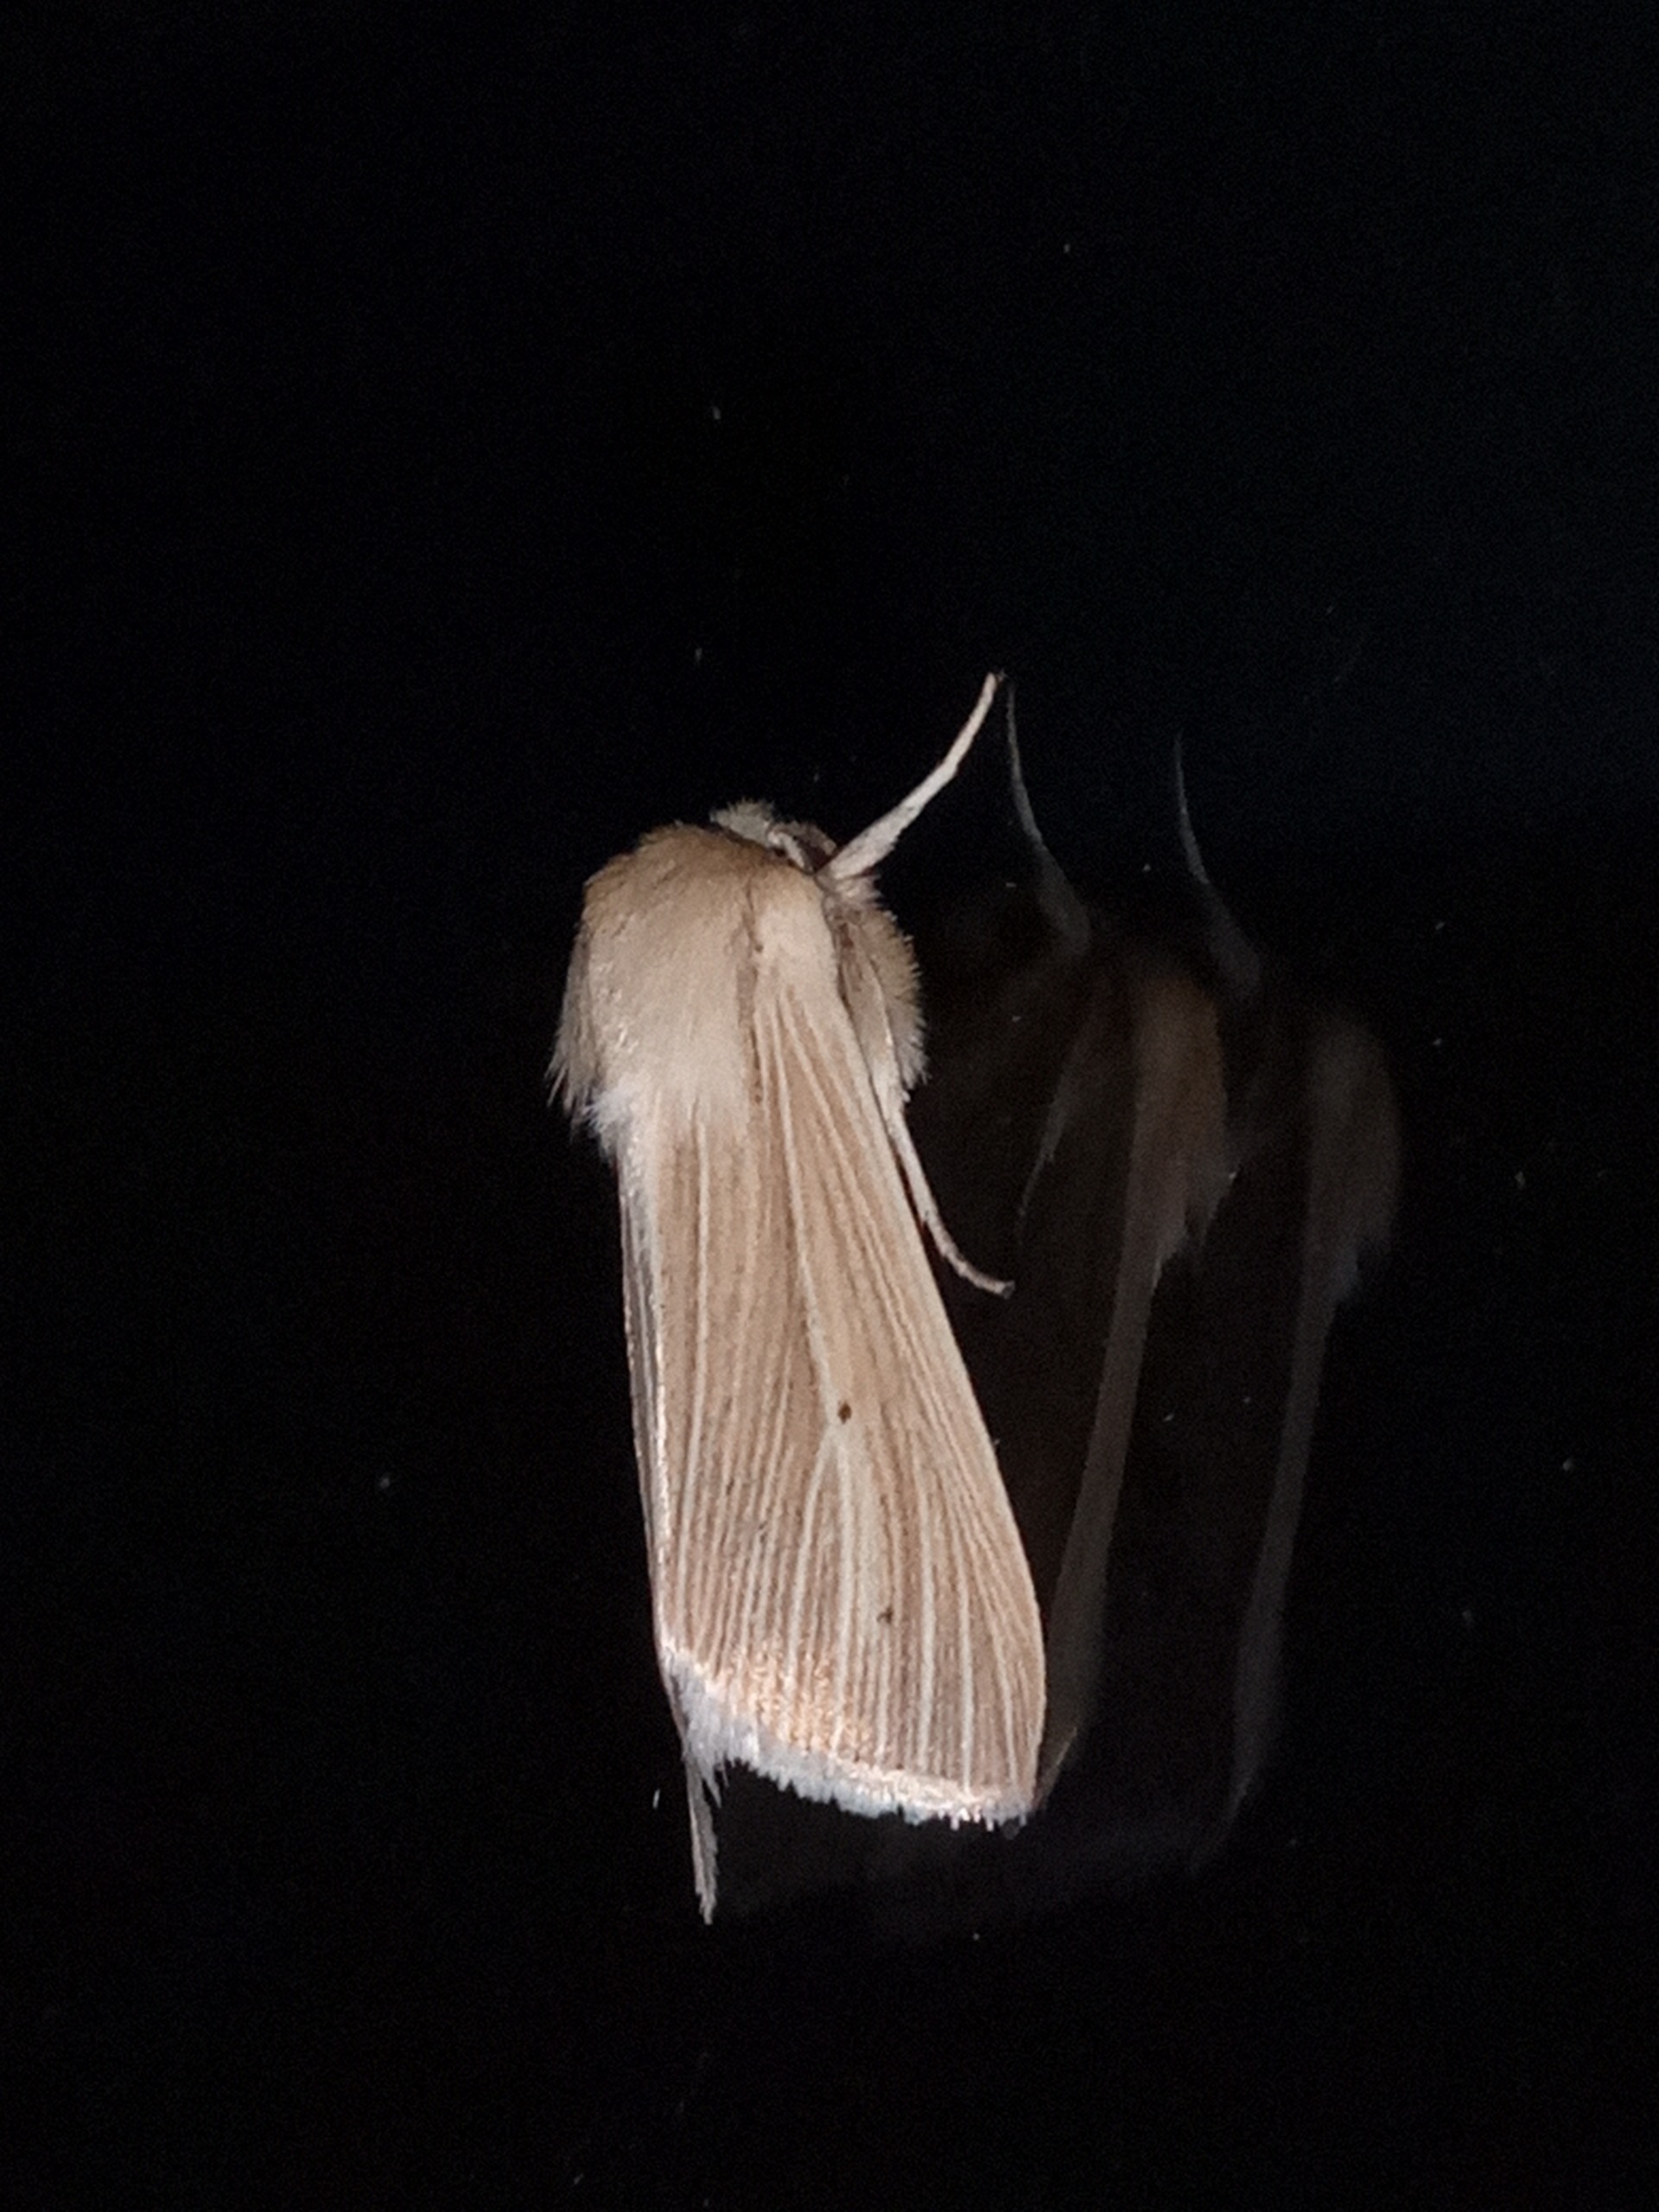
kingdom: Animalia
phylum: Arthropoda
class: Insecta
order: Lepidoptera
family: Noctuidae
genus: Mythimna
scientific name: Mythimna pallens
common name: Halmugle
